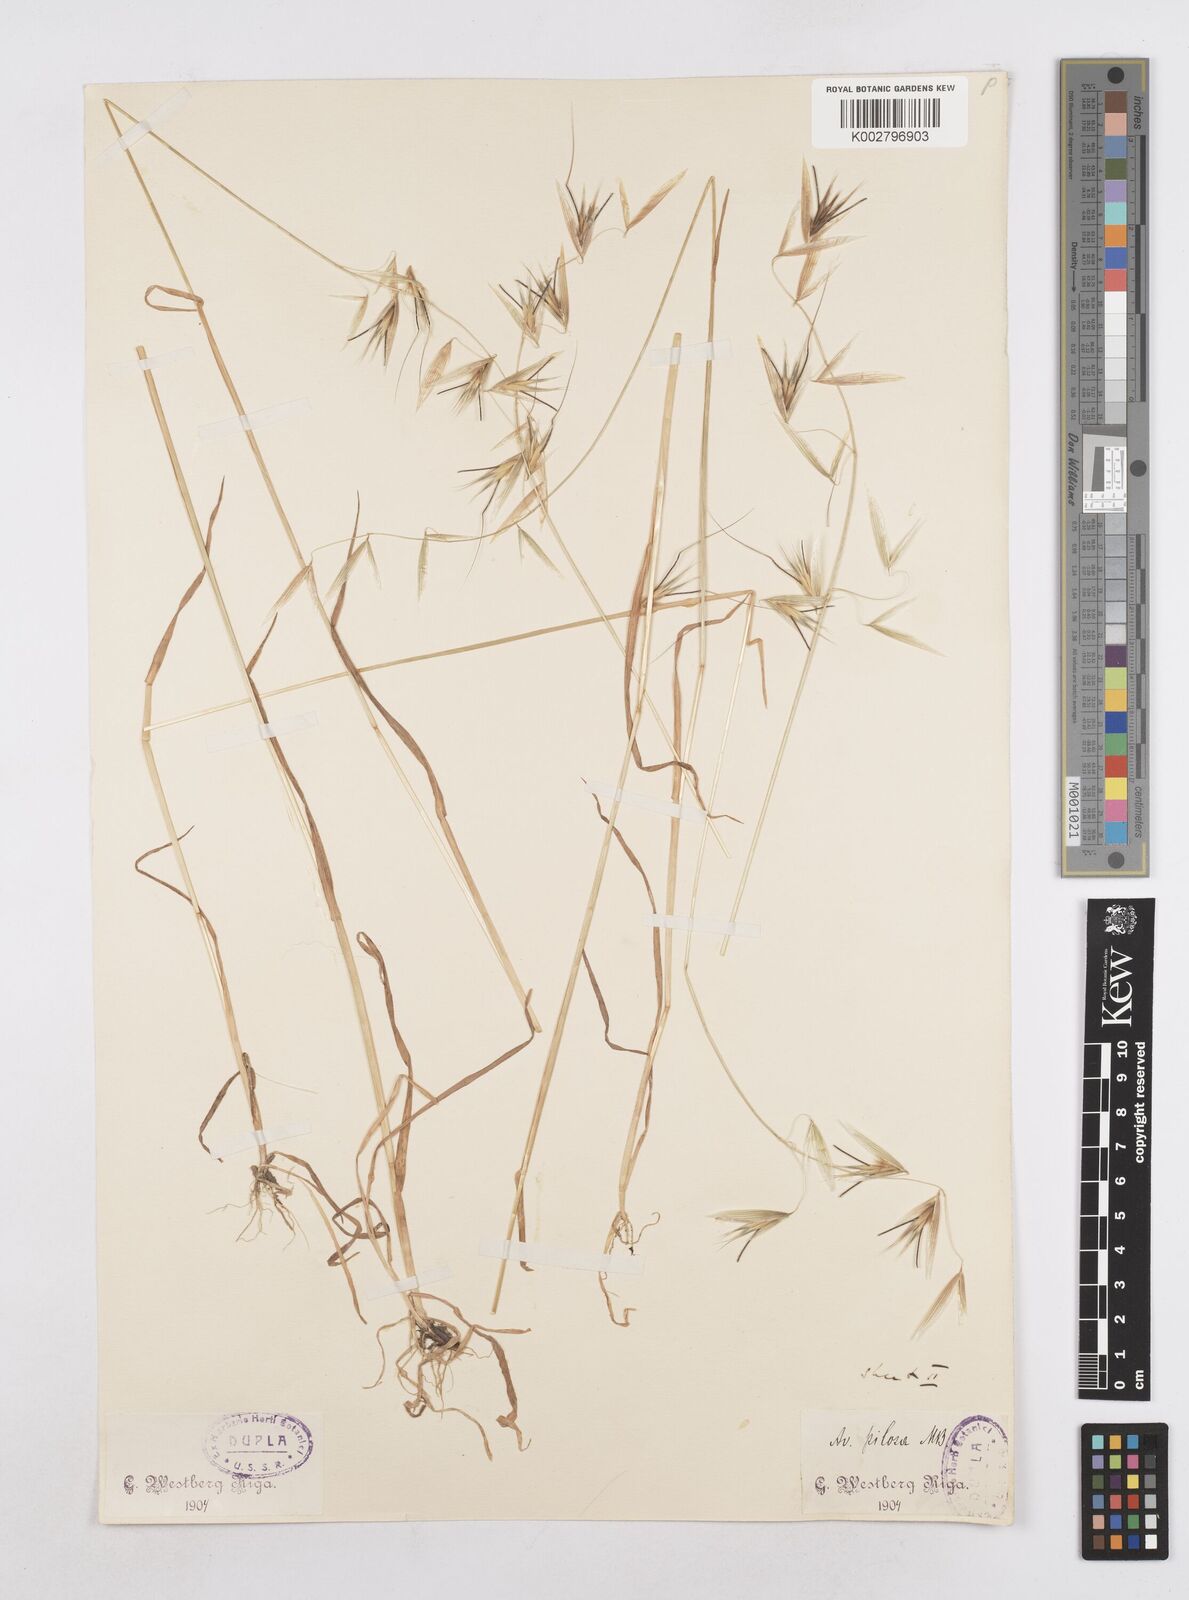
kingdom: Plantae
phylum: Tracheophyta
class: Liliopsida
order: Poales
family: Poaceae
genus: Avena
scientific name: Avena eriantha
